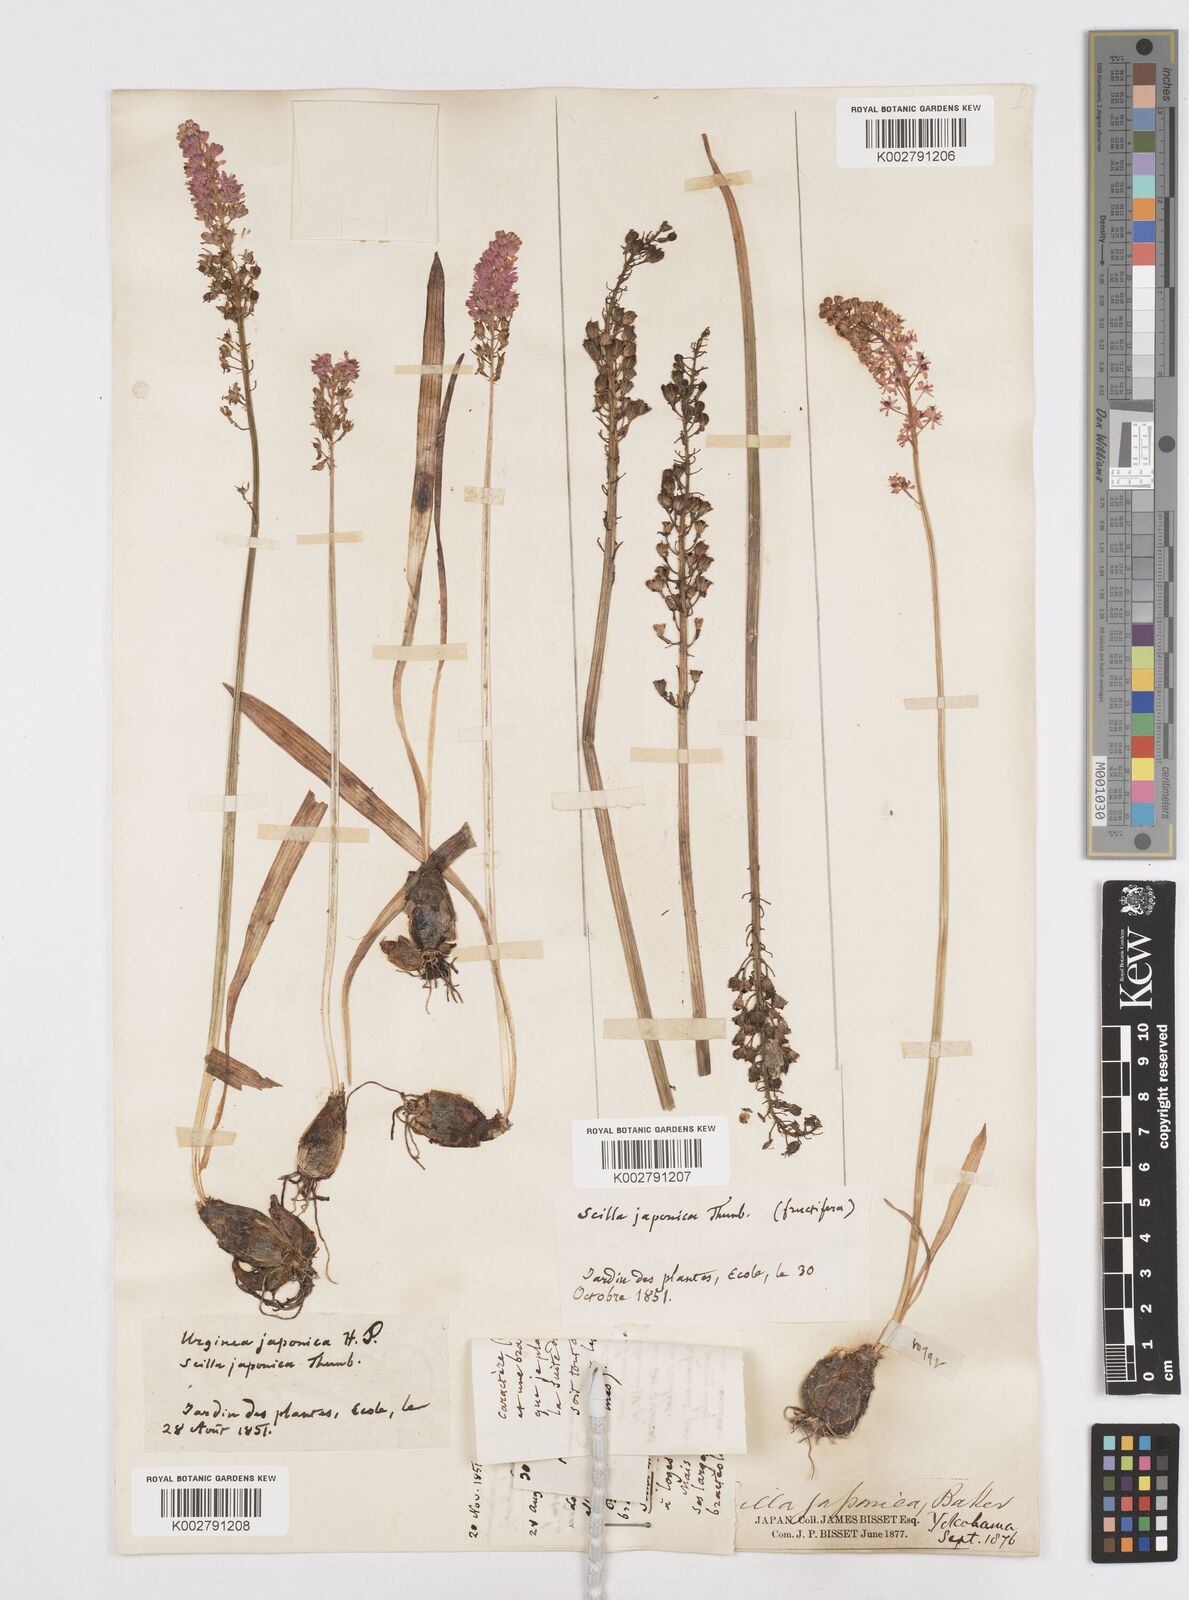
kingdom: Plantae
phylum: Tracheophyta
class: Liliopsida
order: Liliales
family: Melanthiaceae
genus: Helonias
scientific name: Helonias breviscapa
